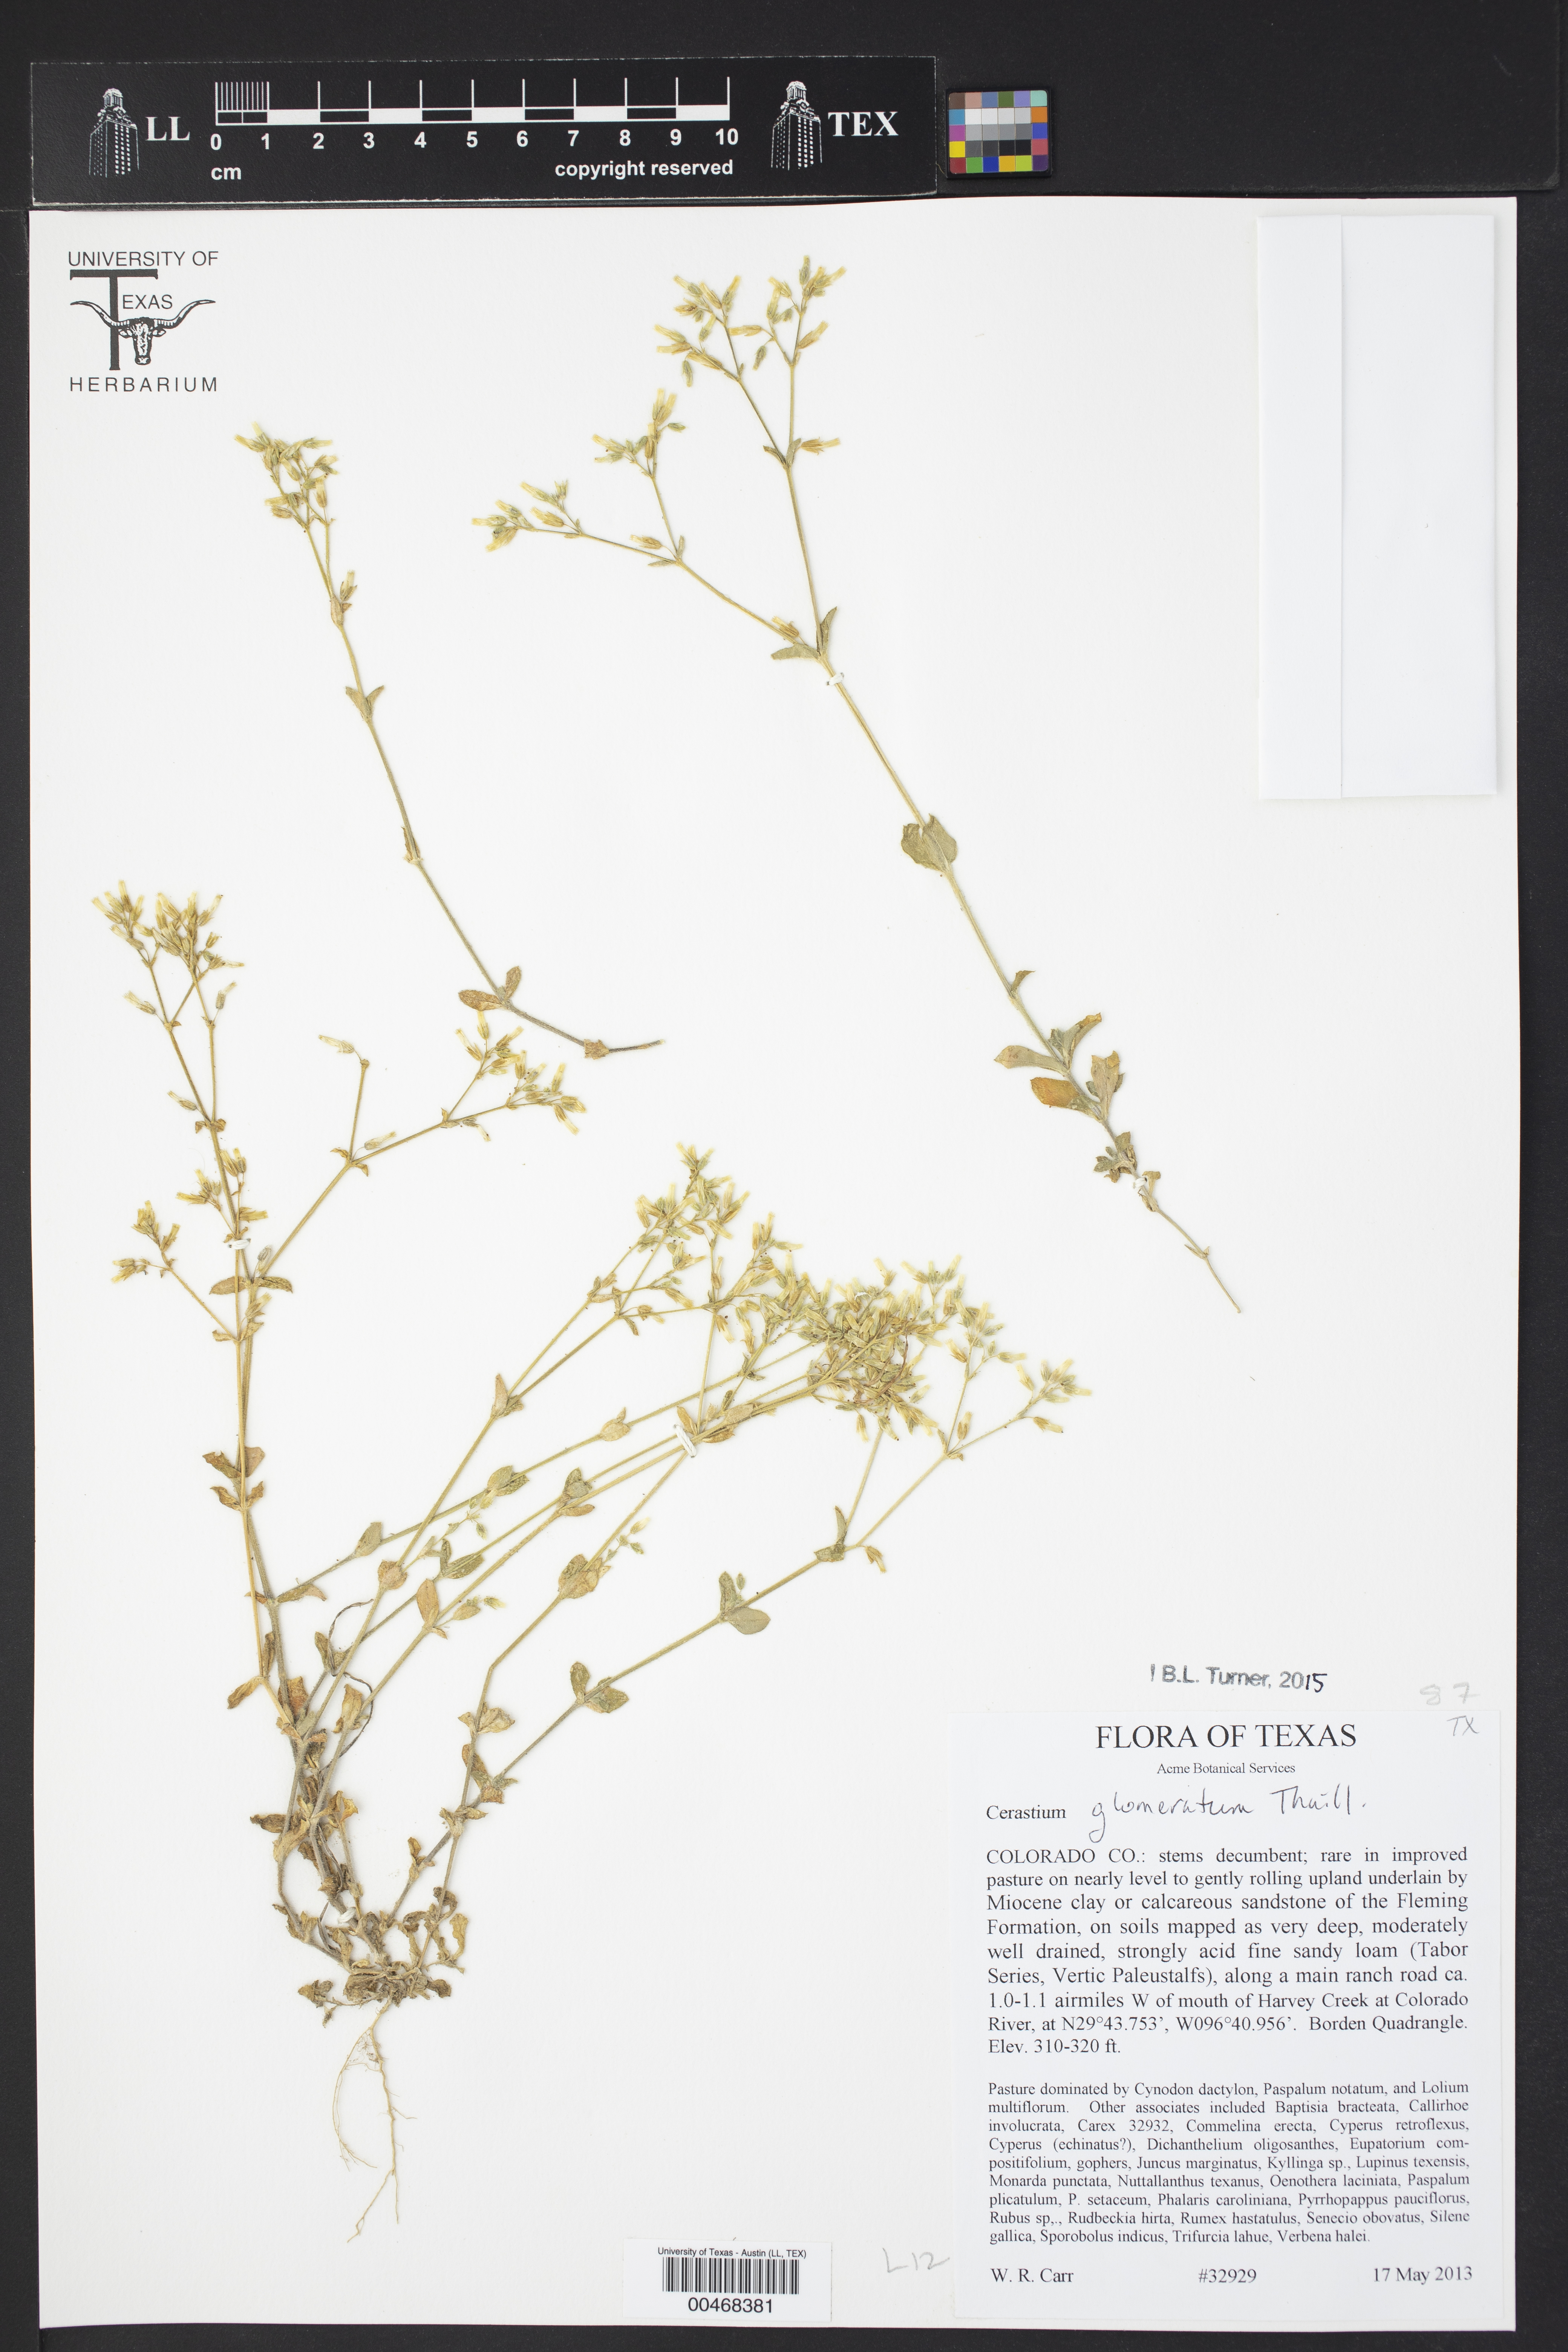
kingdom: Plantae
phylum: Tracheophyta
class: Magnoliopsida
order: Caryophyllales
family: Caryophyllaceae
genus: Cerastium
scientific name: Cerastium glomeratum
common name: Sticky chickweed
